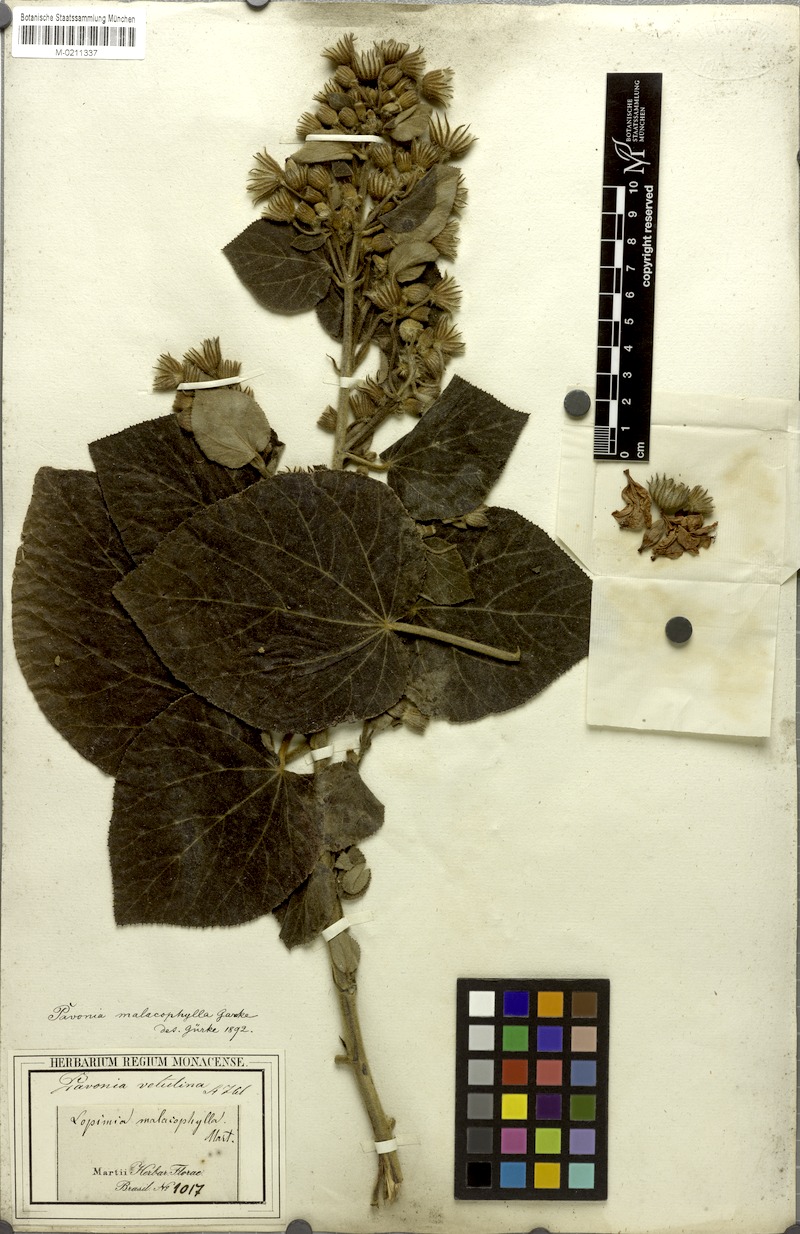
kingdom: Plantae
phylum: Tracheophyta
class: Magnoliopsida
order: Malvales
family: Malvaceae
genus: Pavonia
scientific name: Pavonia malacophylla
